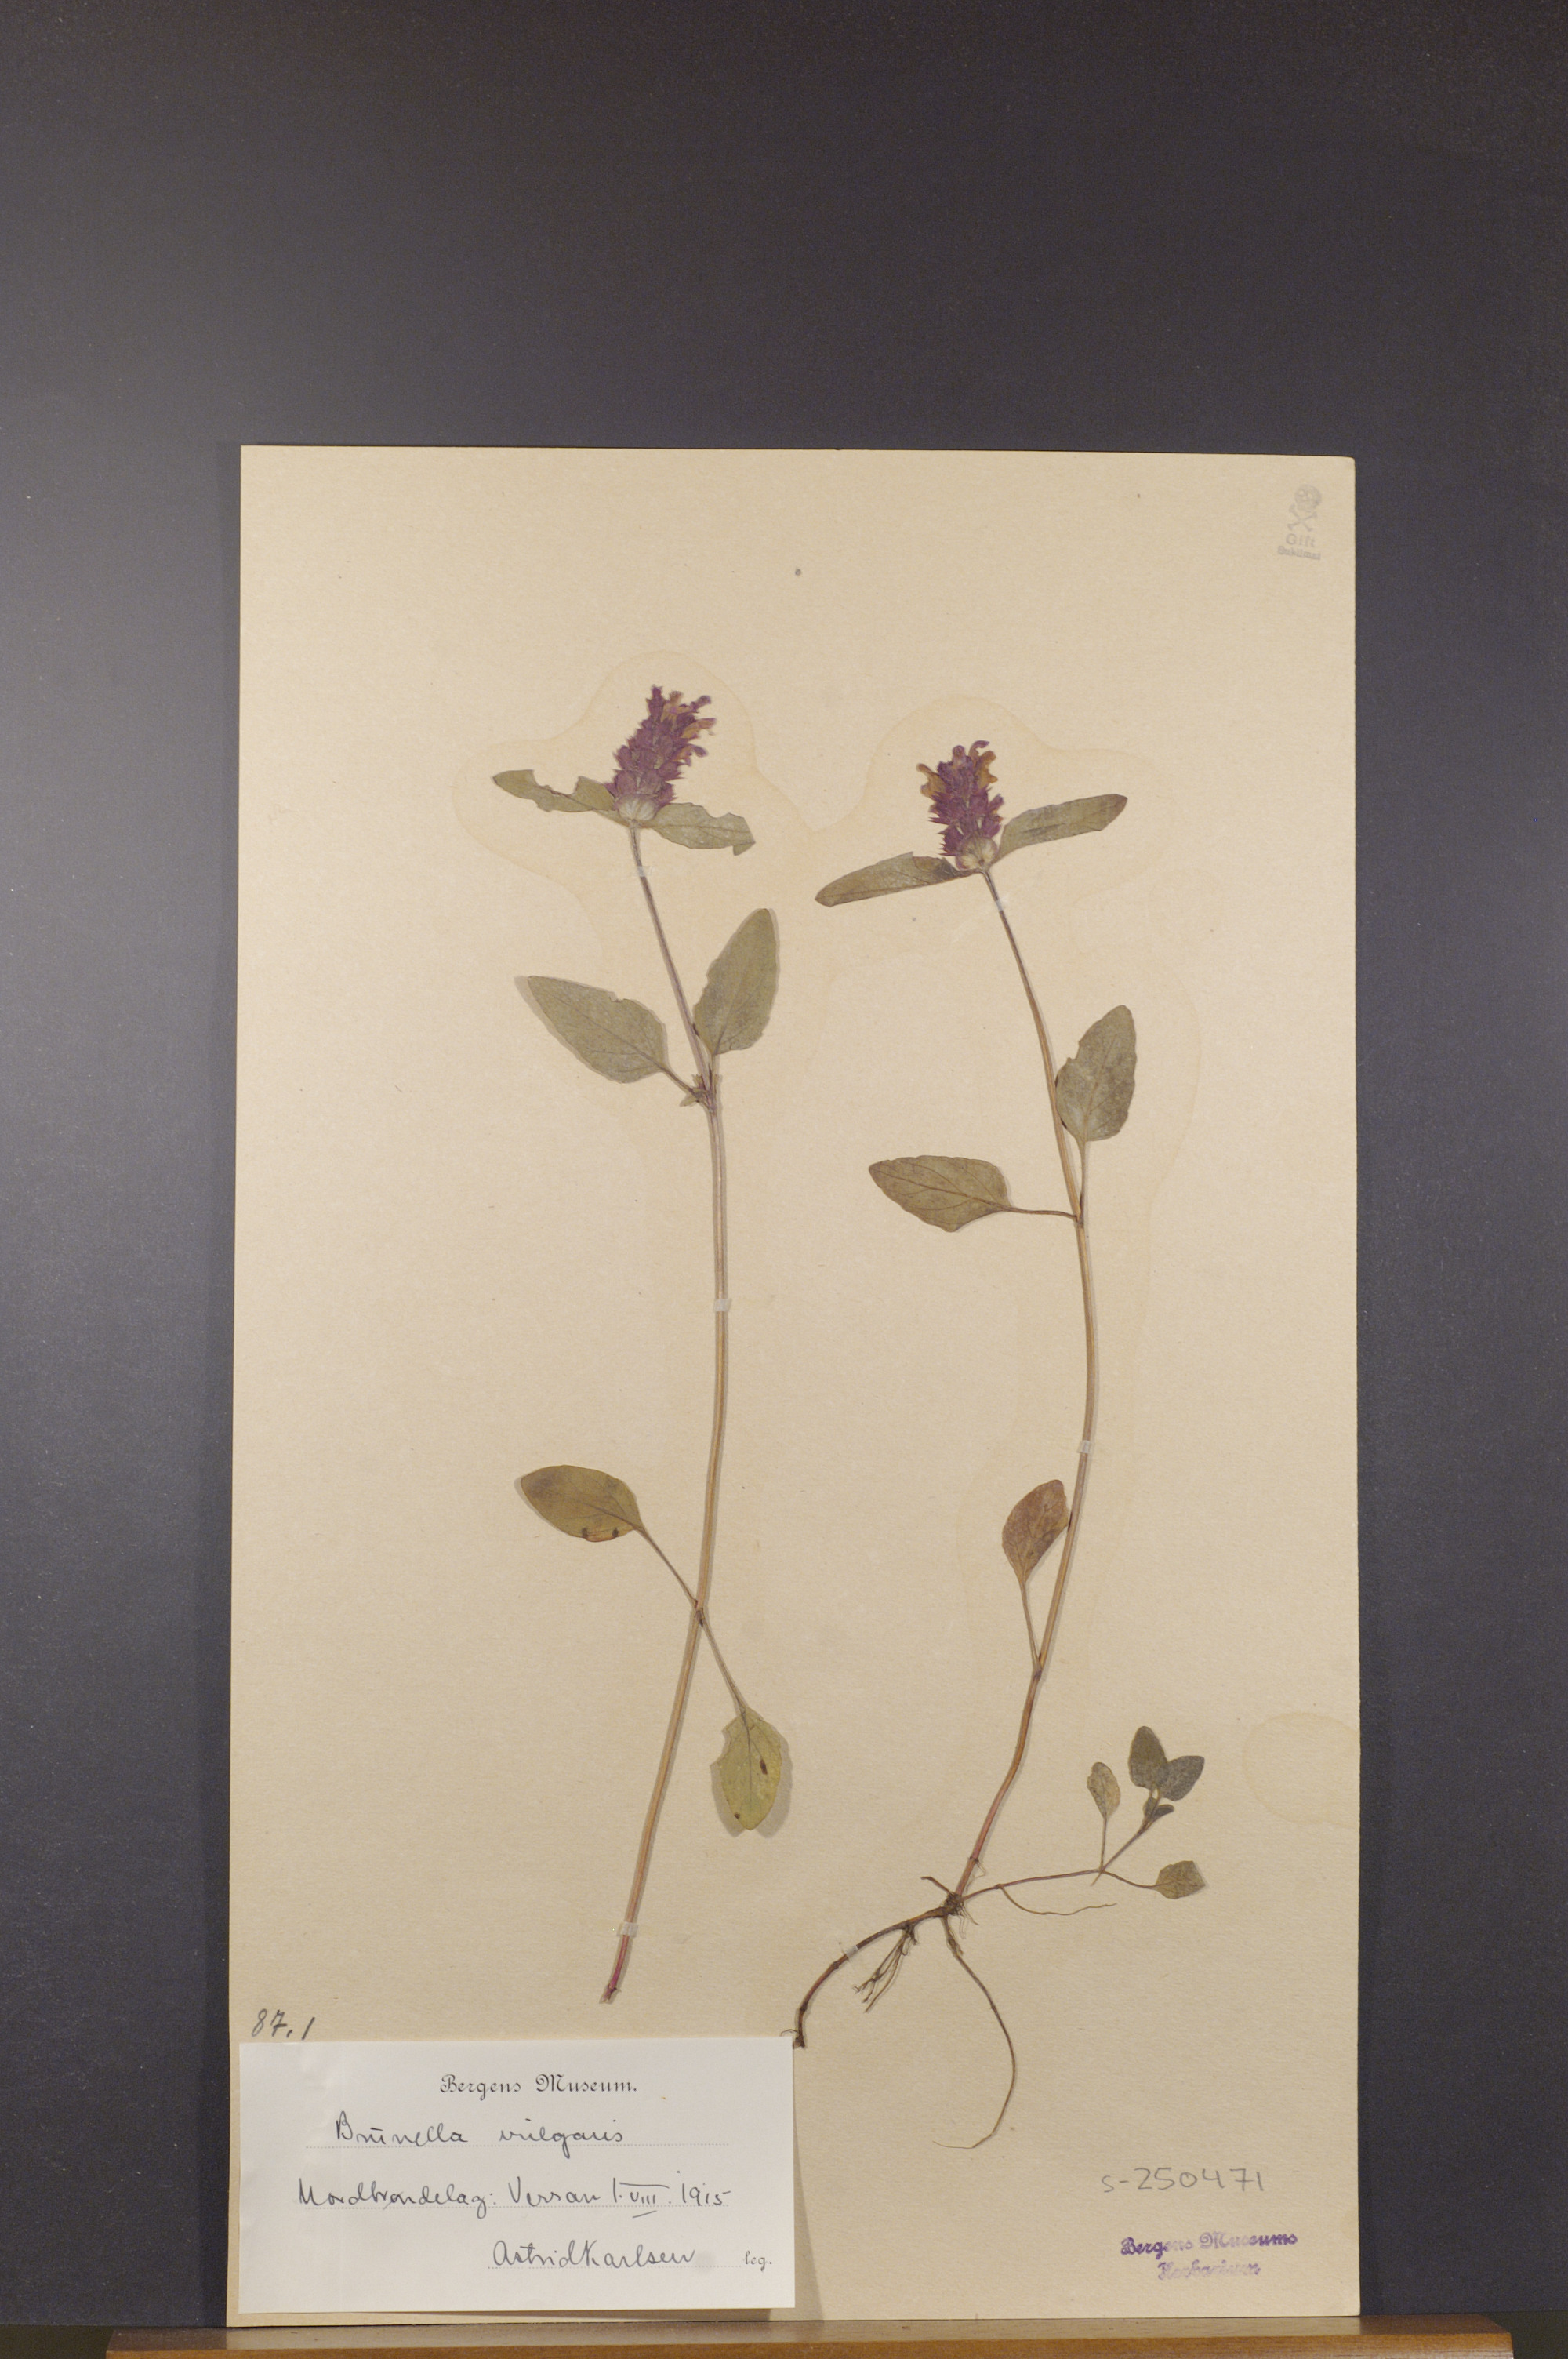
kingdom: Plantae
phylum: Tracheophyta
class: Magnoliopsida
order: Lamiales
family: Lamiaceae
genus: Prunella
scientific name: Prunella vulgaris
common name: Heal-all
